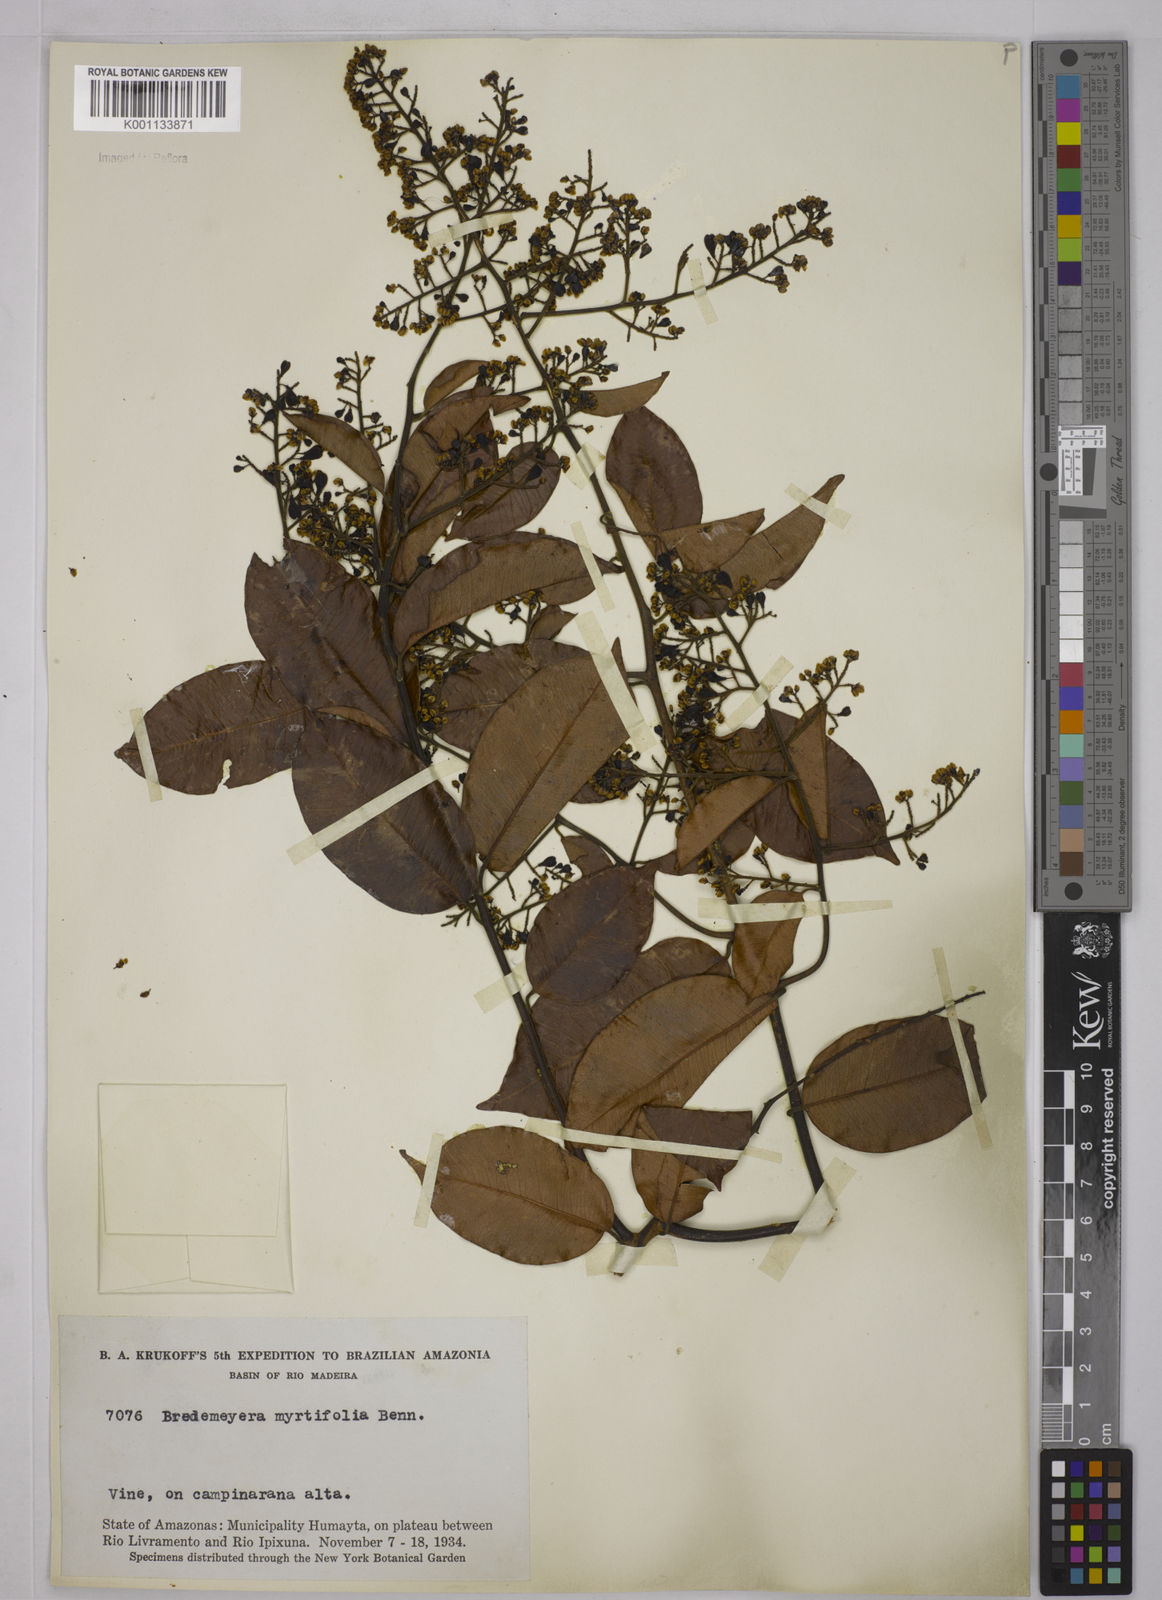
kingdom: Plantae
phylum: Tracheophyta
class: Magnoliopsida
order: Fabales
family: Polygalaceae
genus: Bredemeyera
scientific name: Bredemeyera
